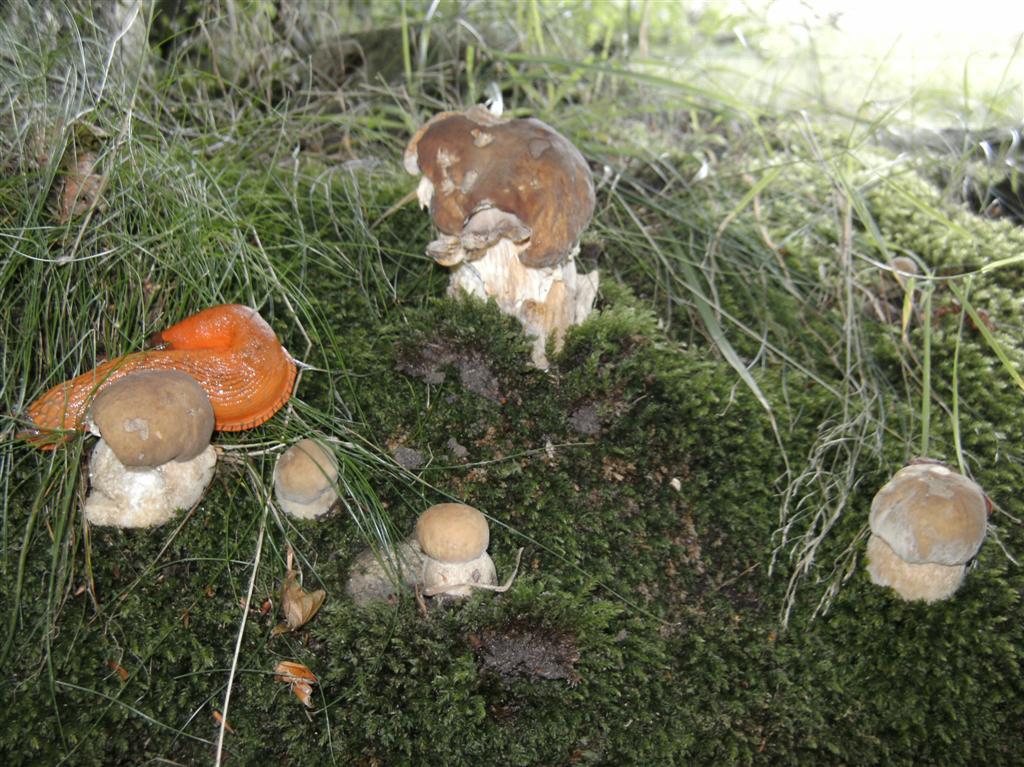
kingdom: Fungi
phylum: Basidiomycota
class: Agaricomycetes
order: Boletales
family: Boletaceae
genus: Boletus
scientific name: Boletus edulis
